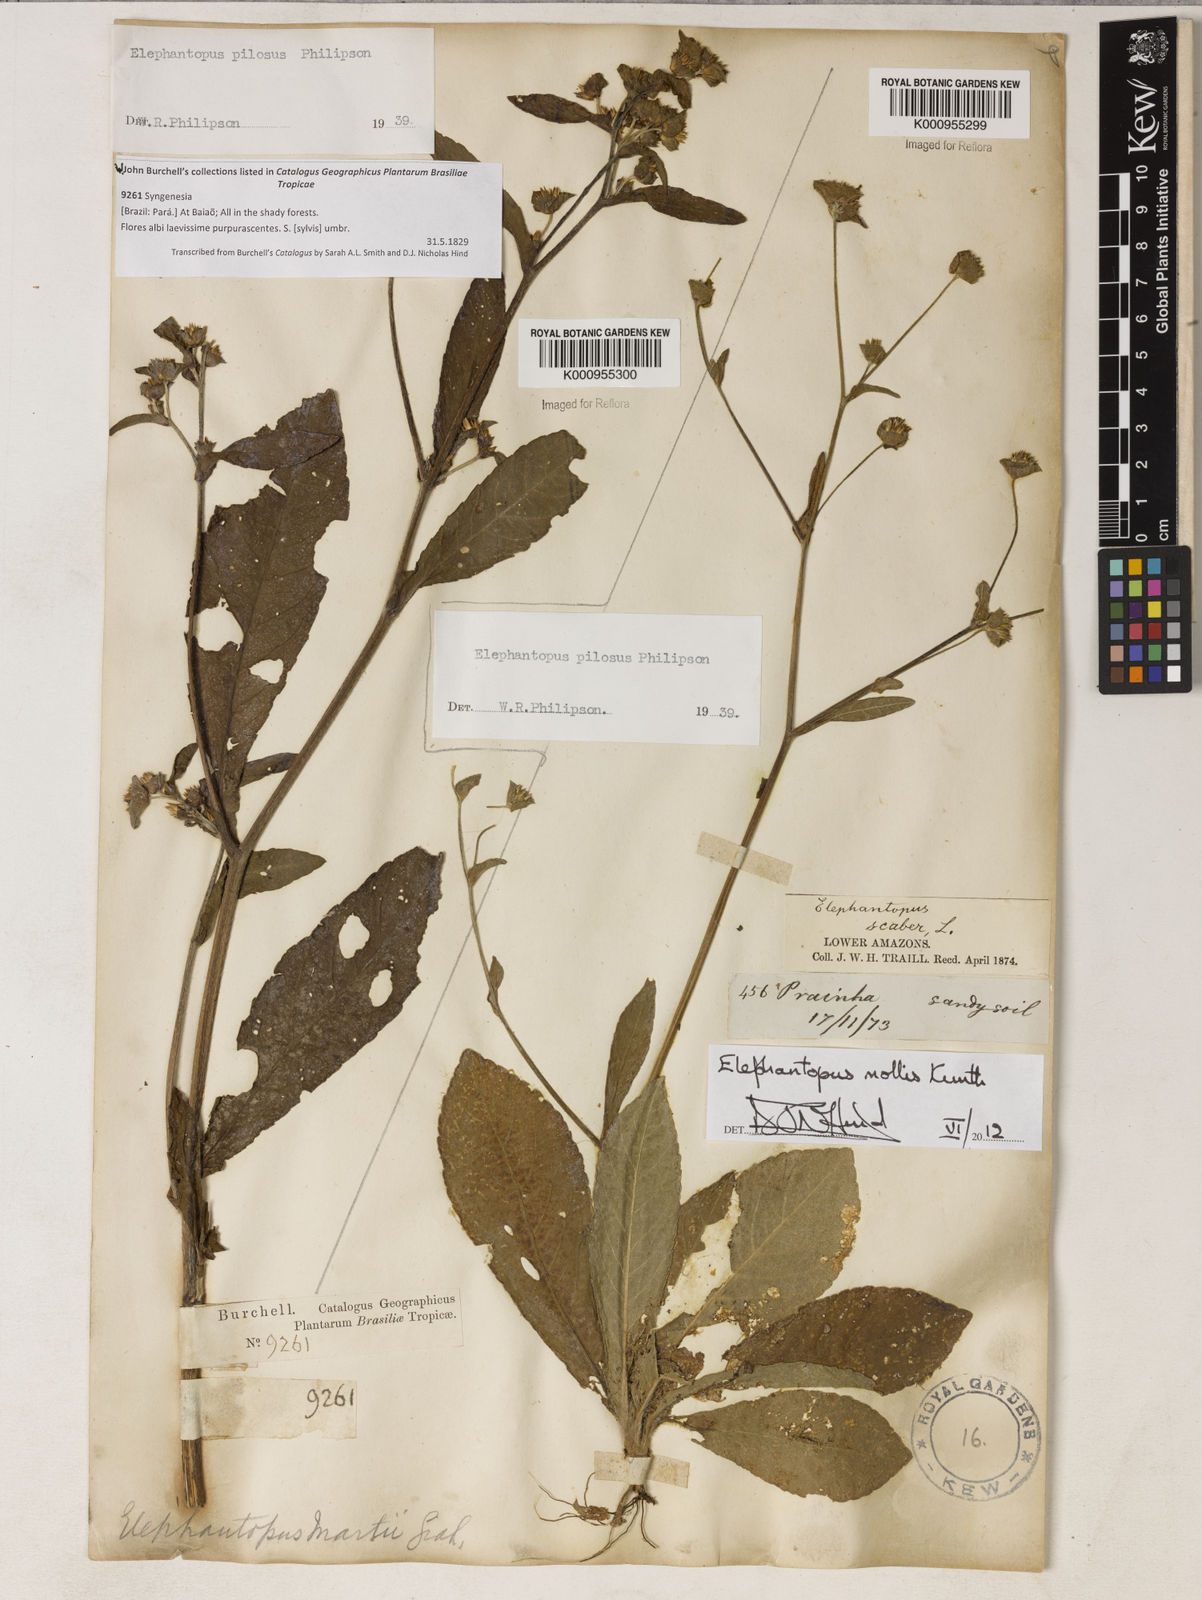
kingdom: Plantae
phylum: Tracheophyta
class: Magnoliopsida
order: Asterales
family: Asteraceae
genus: Elephantopus
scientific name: Elephantopus mollis
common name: Soft elephantsfoot
